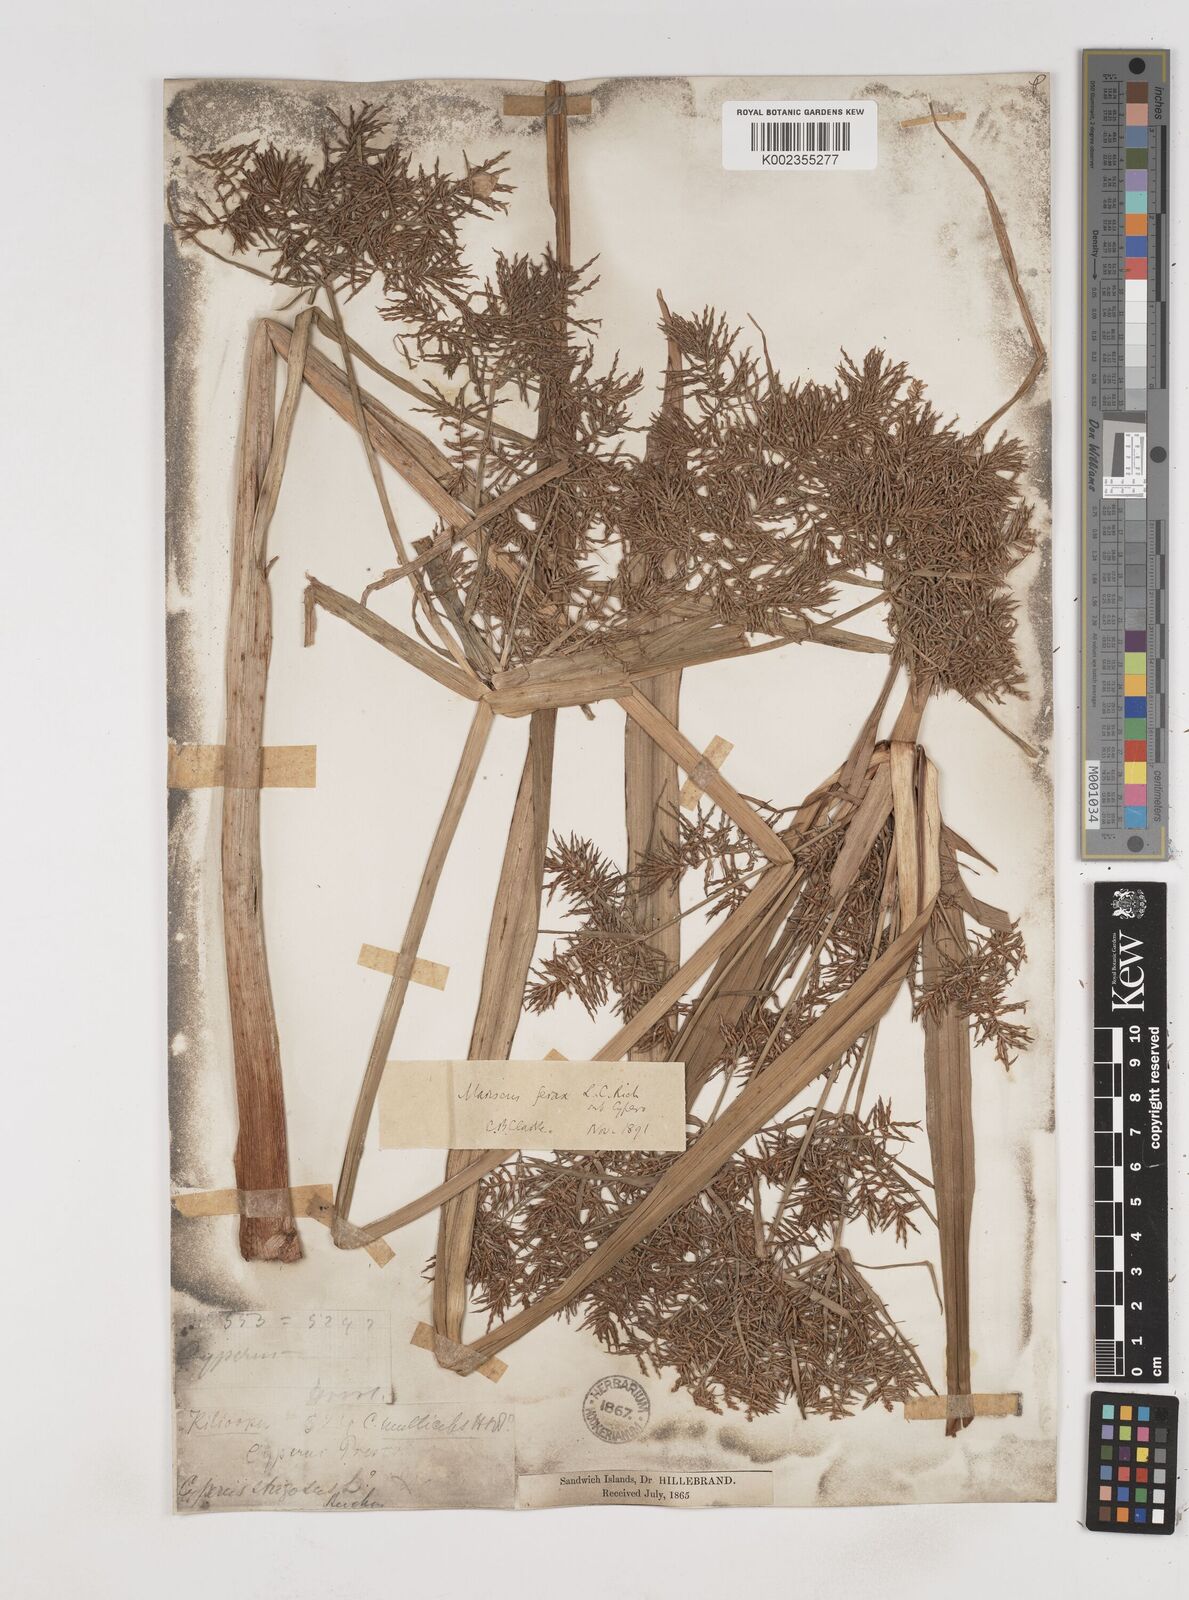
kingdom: Plantae
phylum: Tracheophyta
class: Liliopsida
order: Poales
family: Cyperaceae
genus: Cyperus
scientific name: Cyperus odoratus
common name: Fragrant flatsedge
